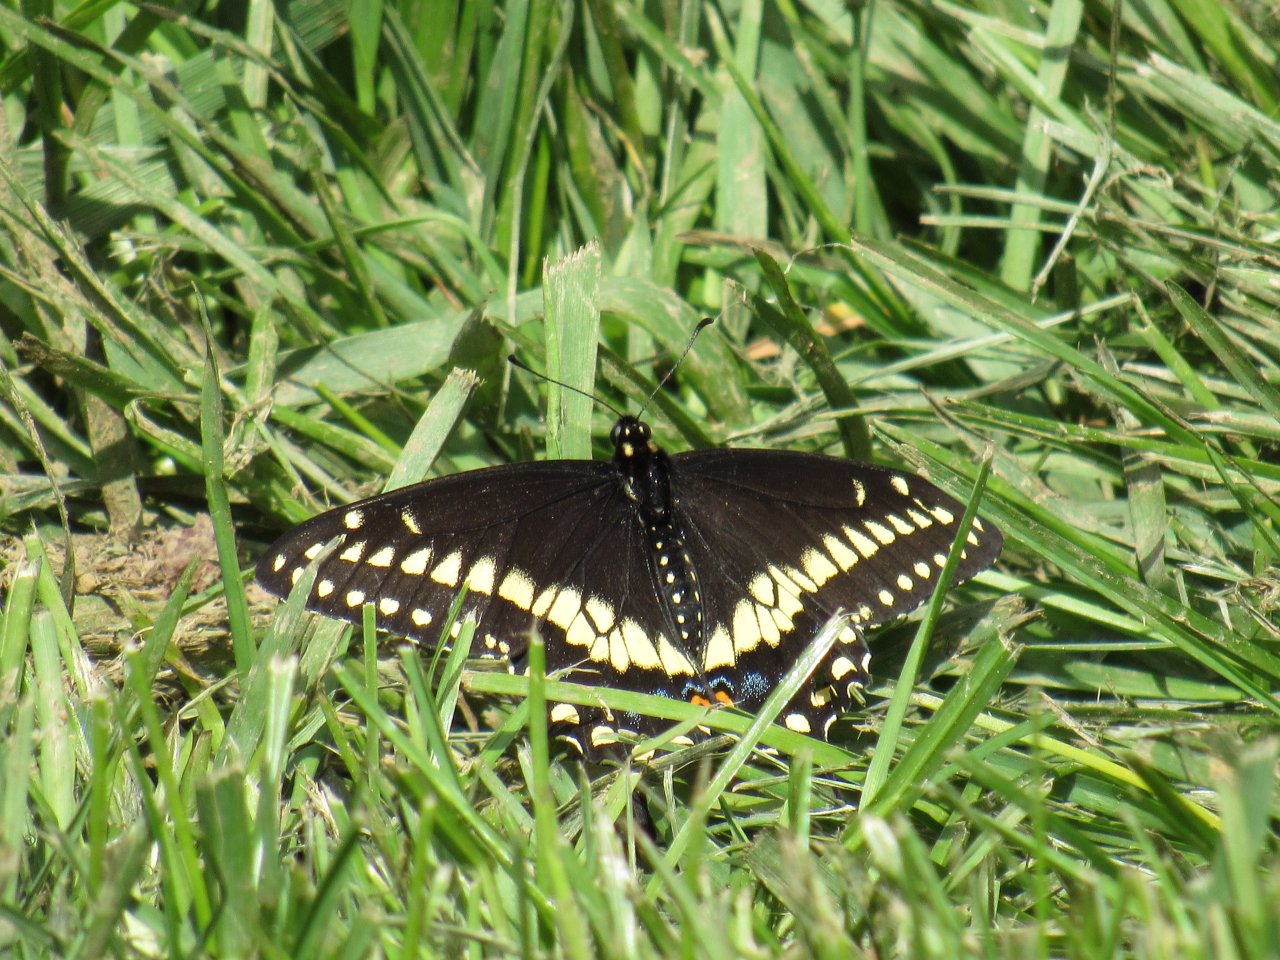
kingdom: Animalia
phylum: Arthropoda
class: Insecta
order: Lepidoptera
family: Papilionidae
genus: Papilio
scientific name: Papilio polyxenes
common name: Black Swallowtail
